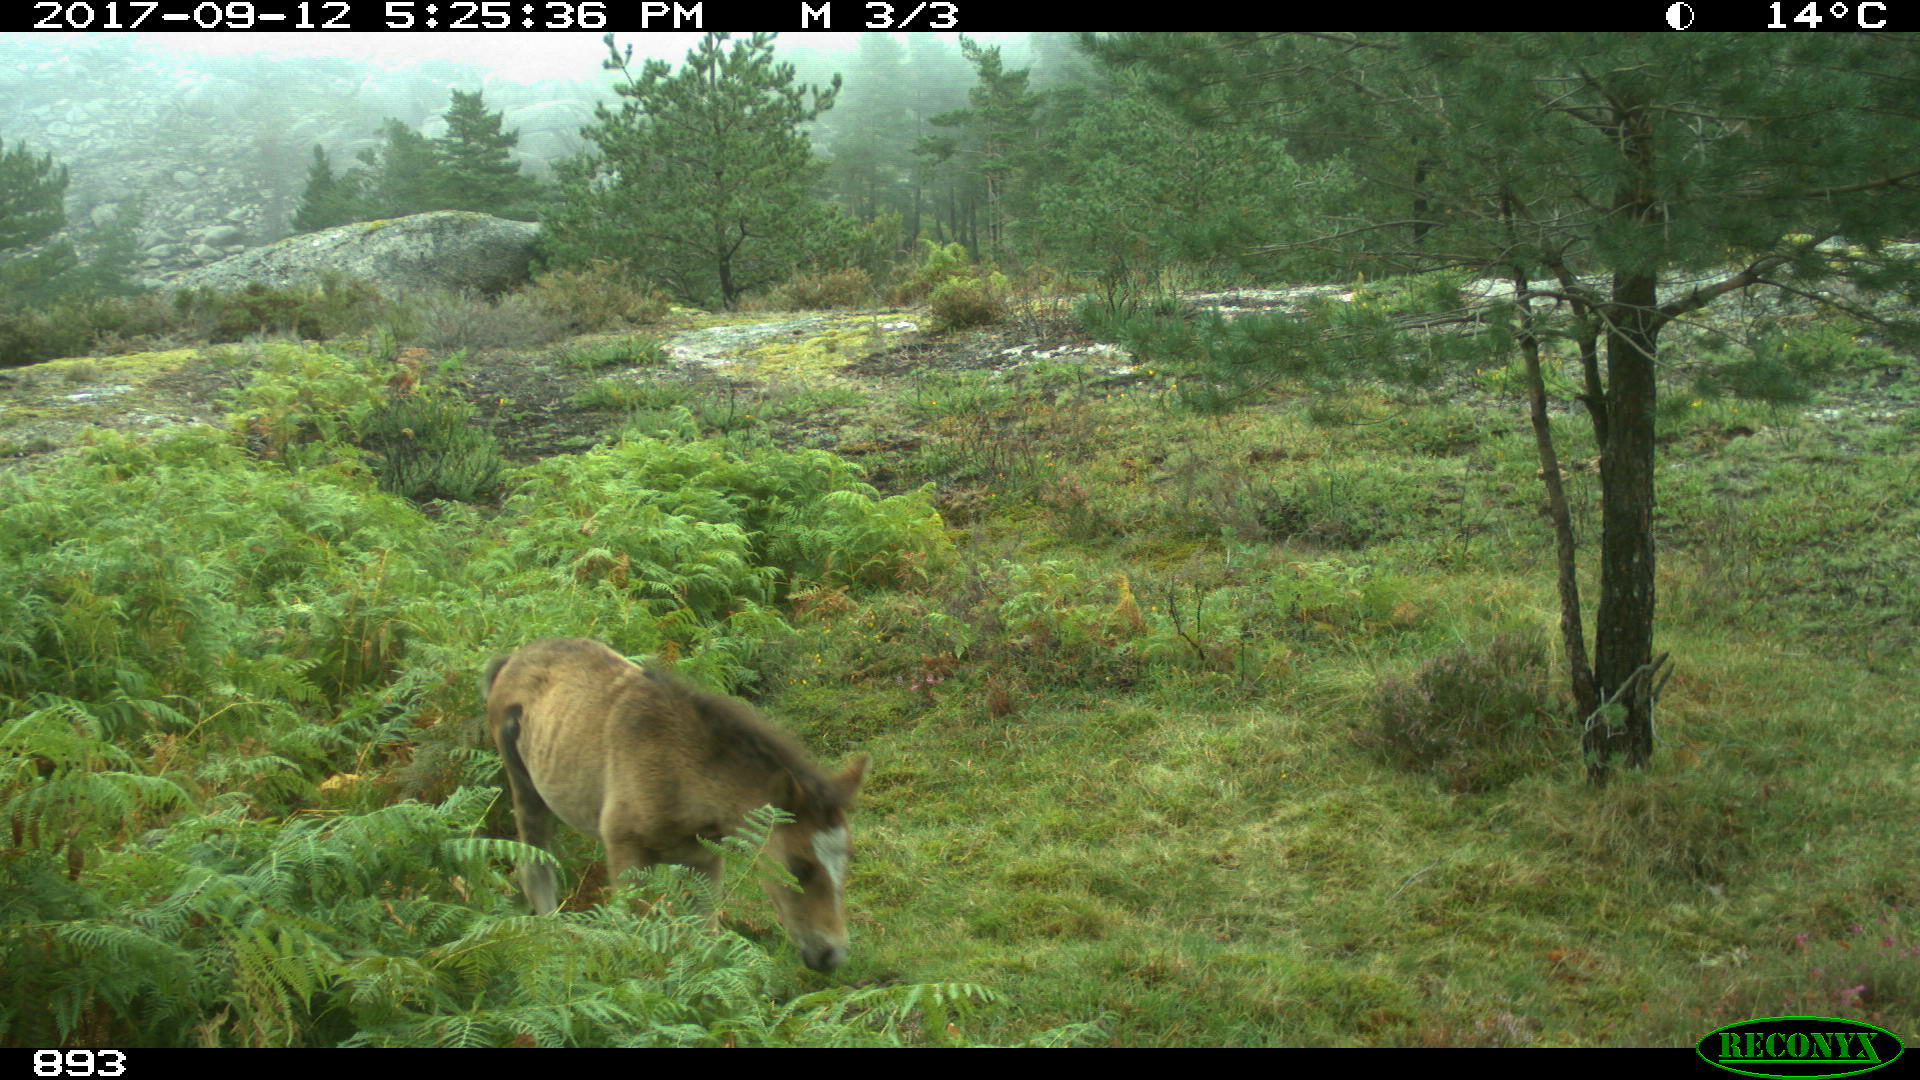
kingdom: Animalia
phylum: Chordata
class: Mammalia
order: Perissodactyla
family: Equidae
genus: Equus
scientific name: Equus caballus
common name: Horse
